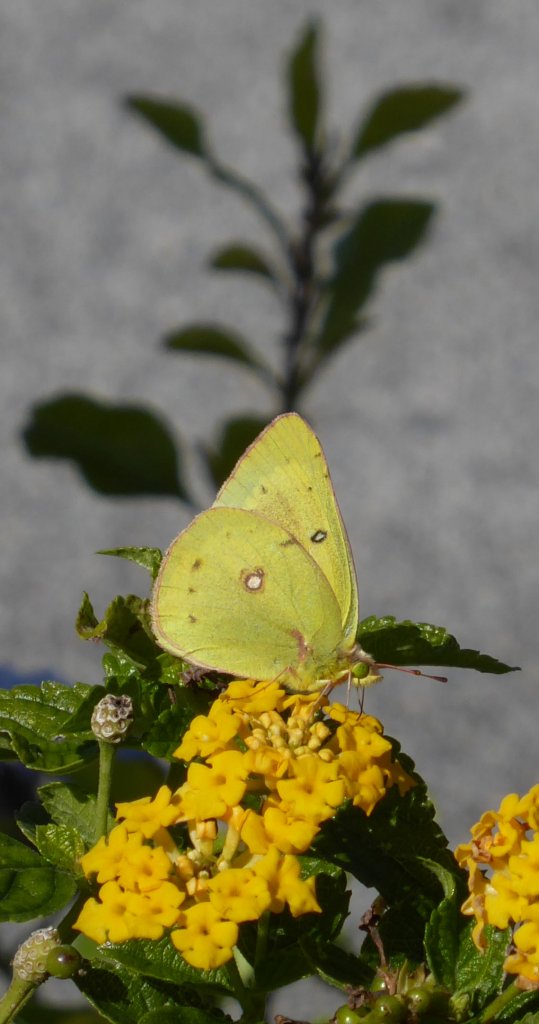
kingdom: Animalia
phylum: Arthropoda
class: Insecta
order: Lepidoptera
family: Pieridae
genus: Colias
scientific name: Colias eurytheme
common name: Orange Sulphur
